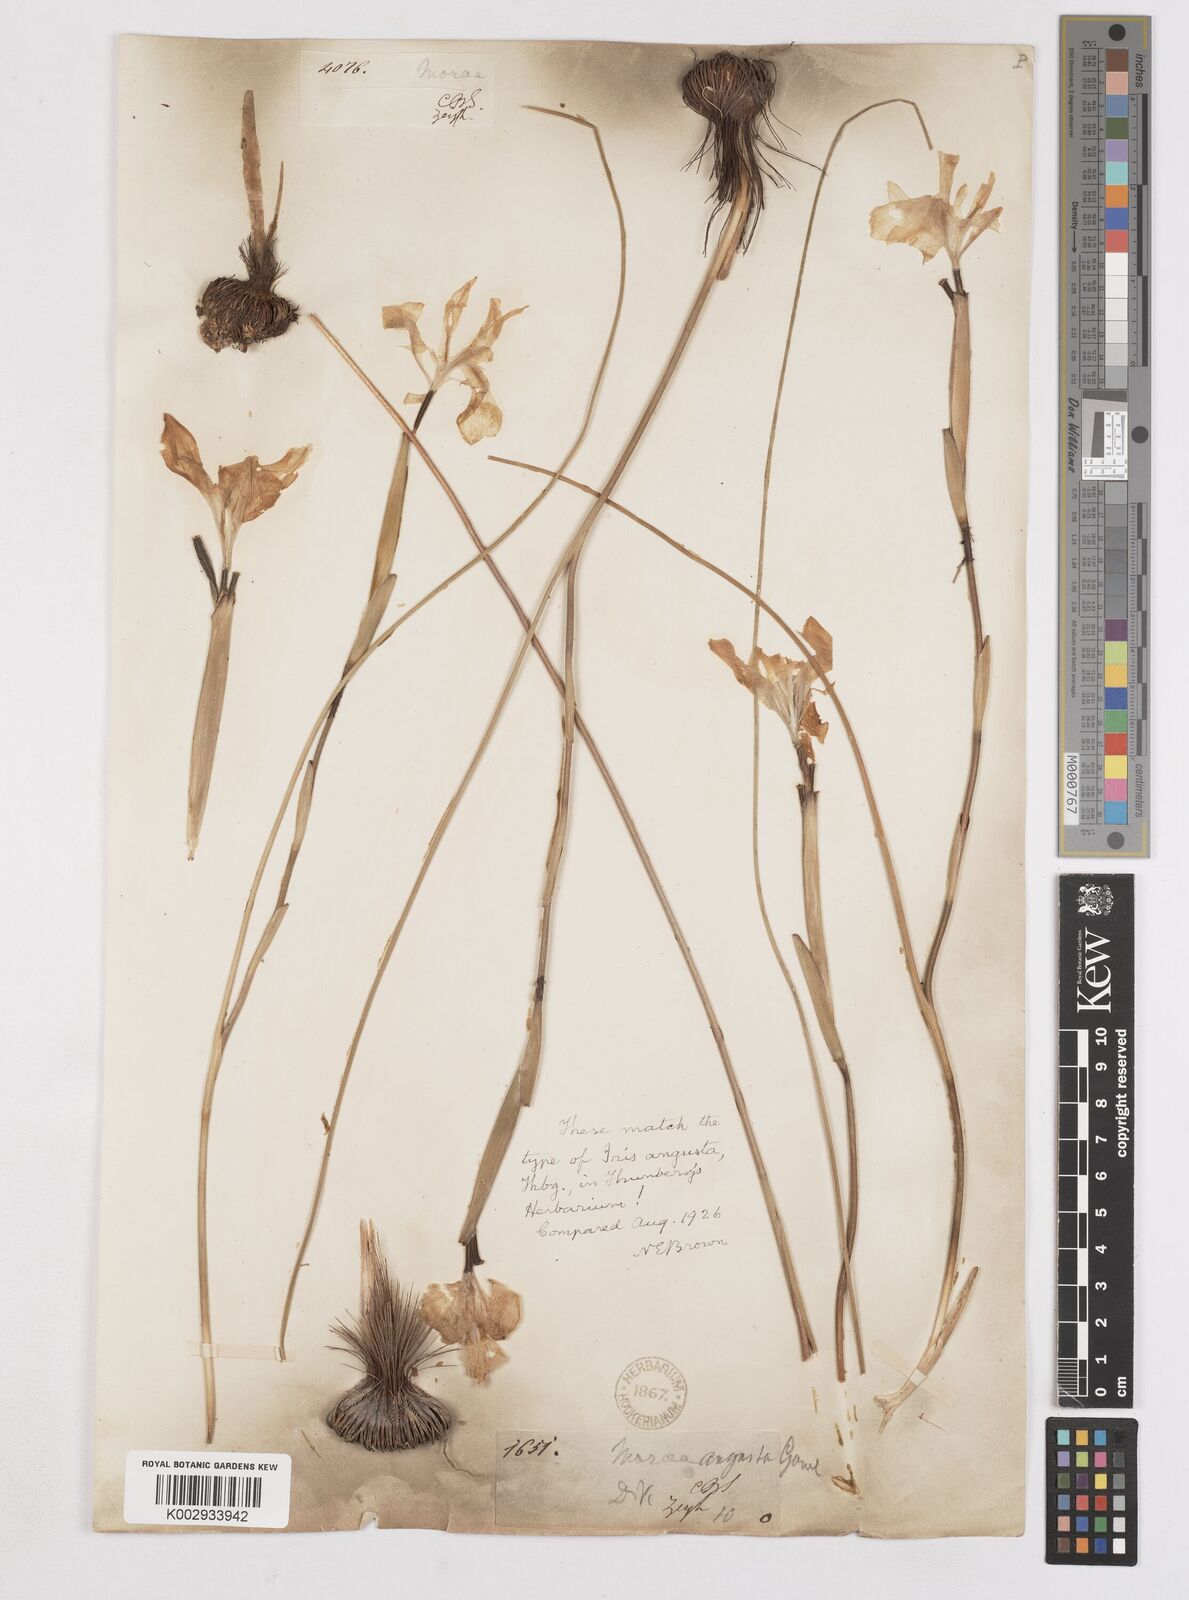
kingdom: Plantae
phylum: Tracheophyta
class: Liliopsida
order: Asparagales
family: Iridaceae
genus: Moraea
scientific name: Moraea angusta
